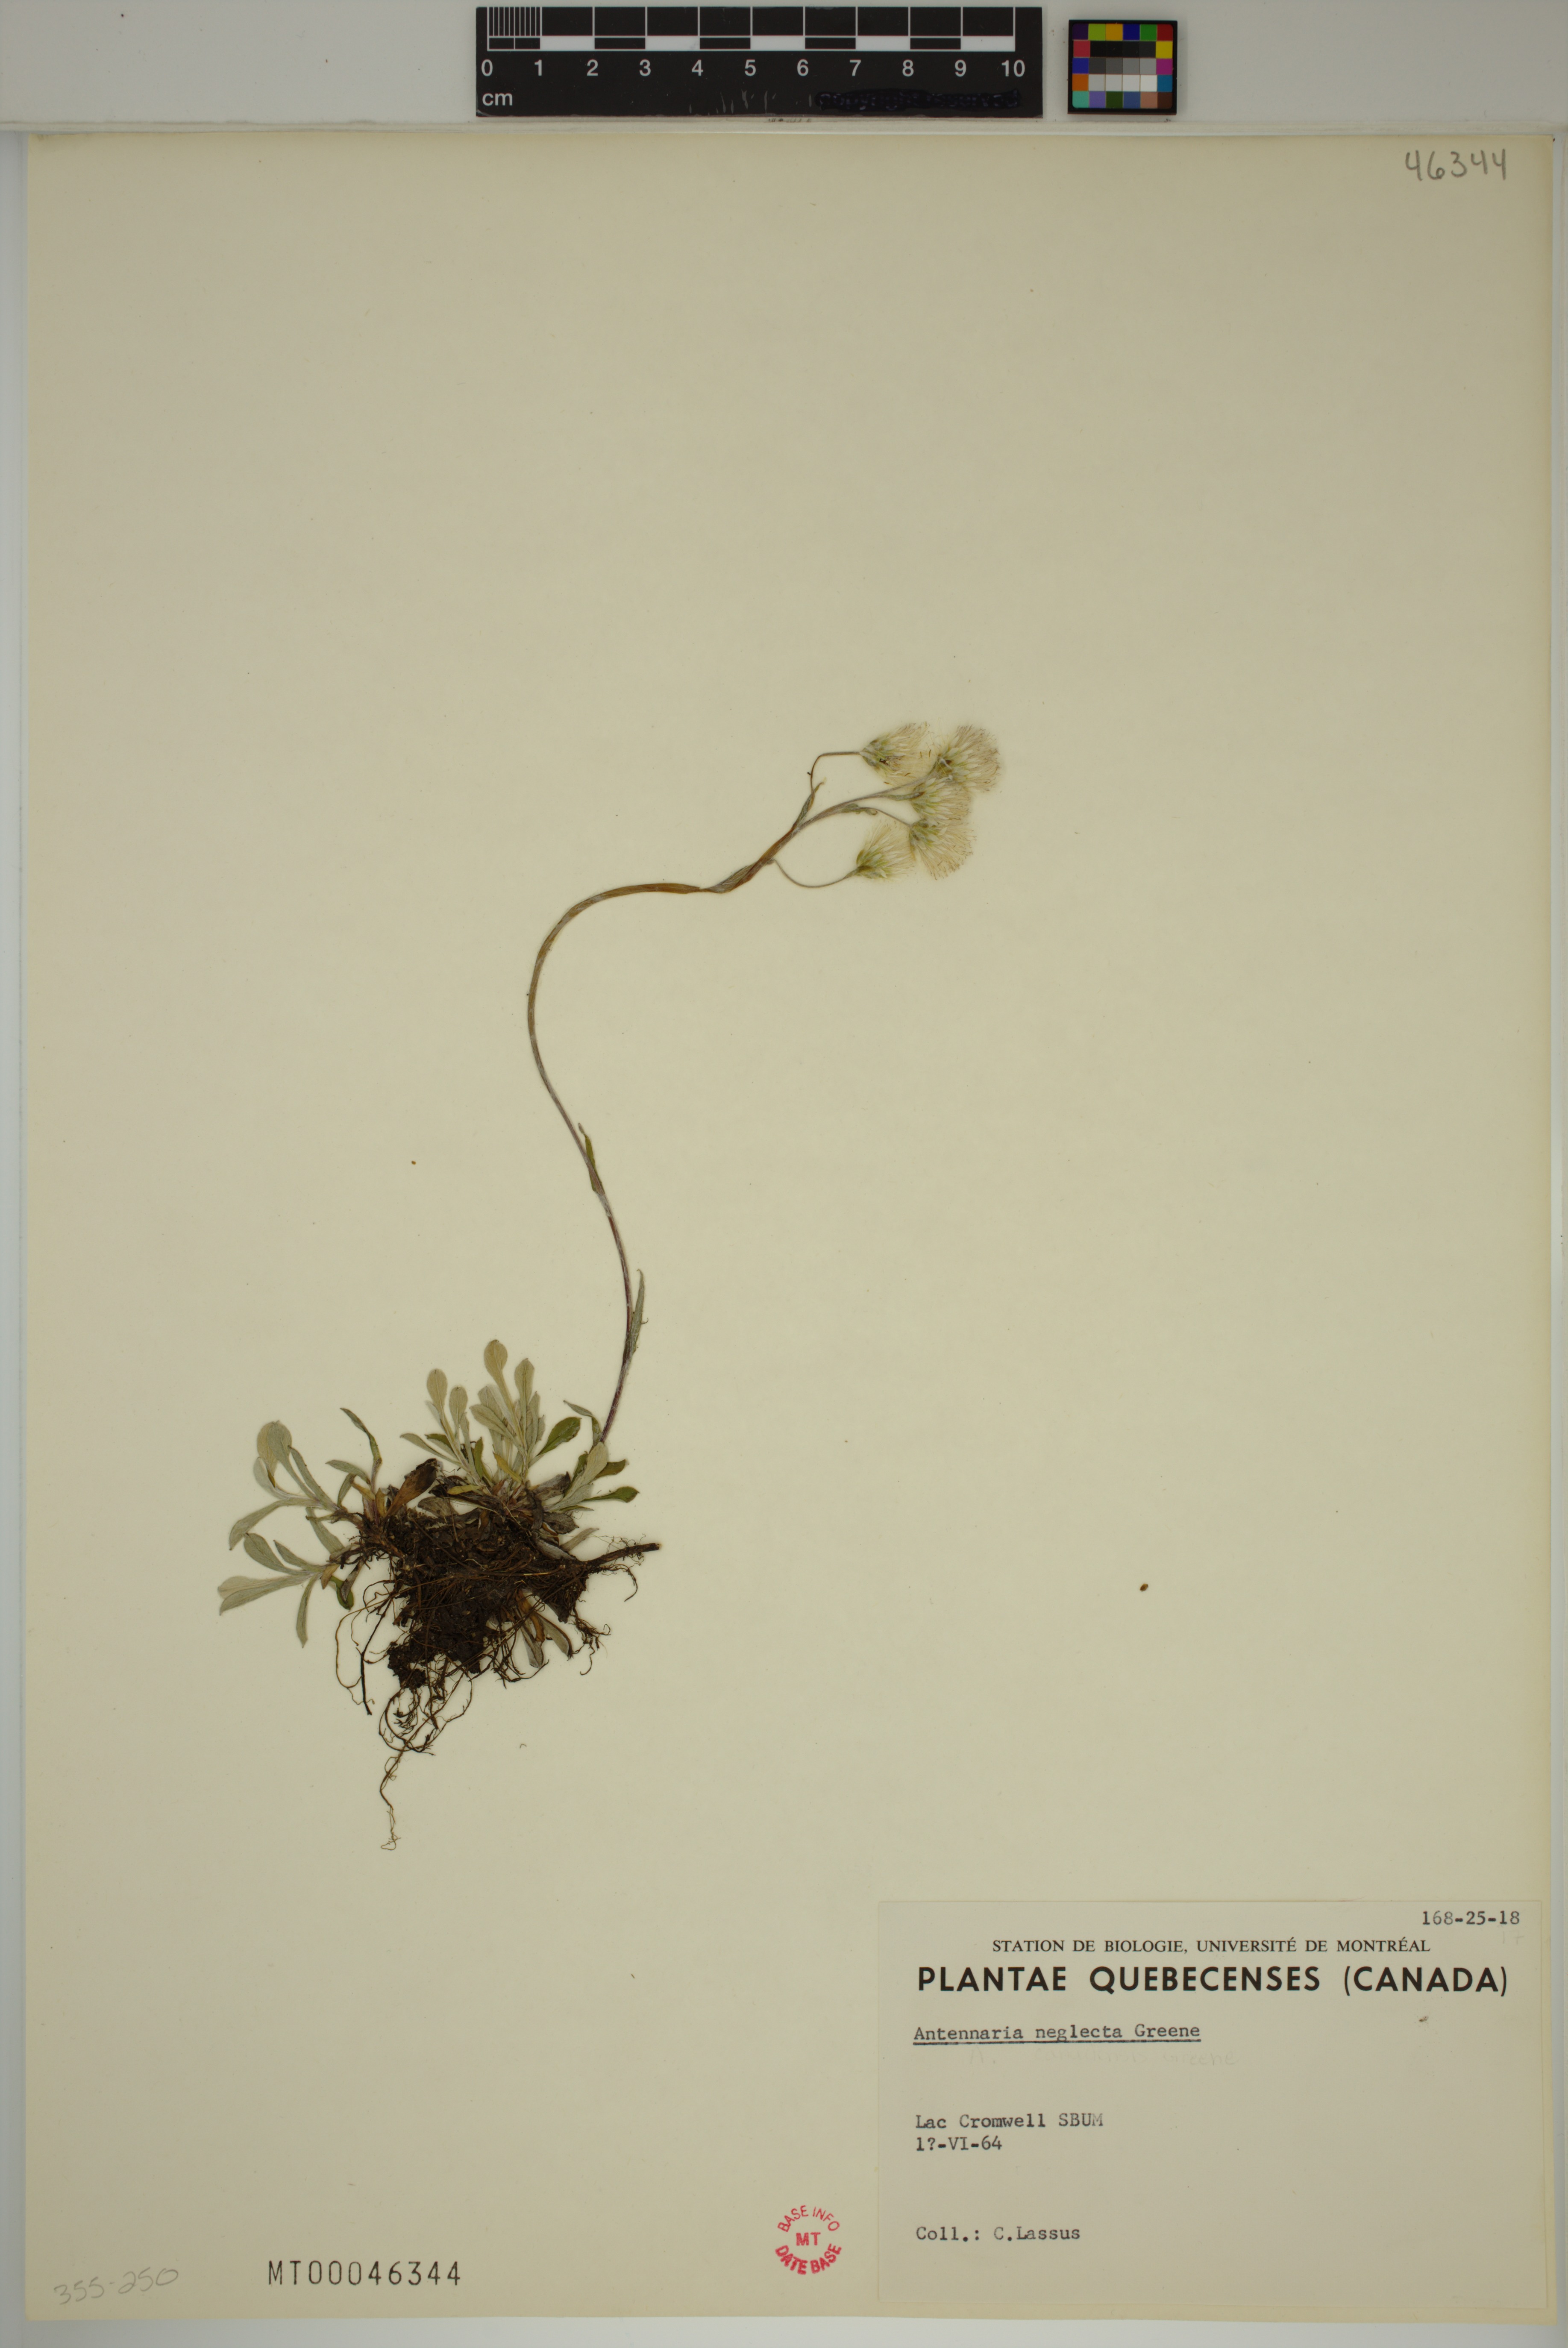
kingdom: Plantae
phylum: Tracheophyta
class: Magnoliopsida
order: Asterales
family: Asteraceae
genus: Antennaria
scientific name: Antennaria neglecta
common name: Field pussytoes
